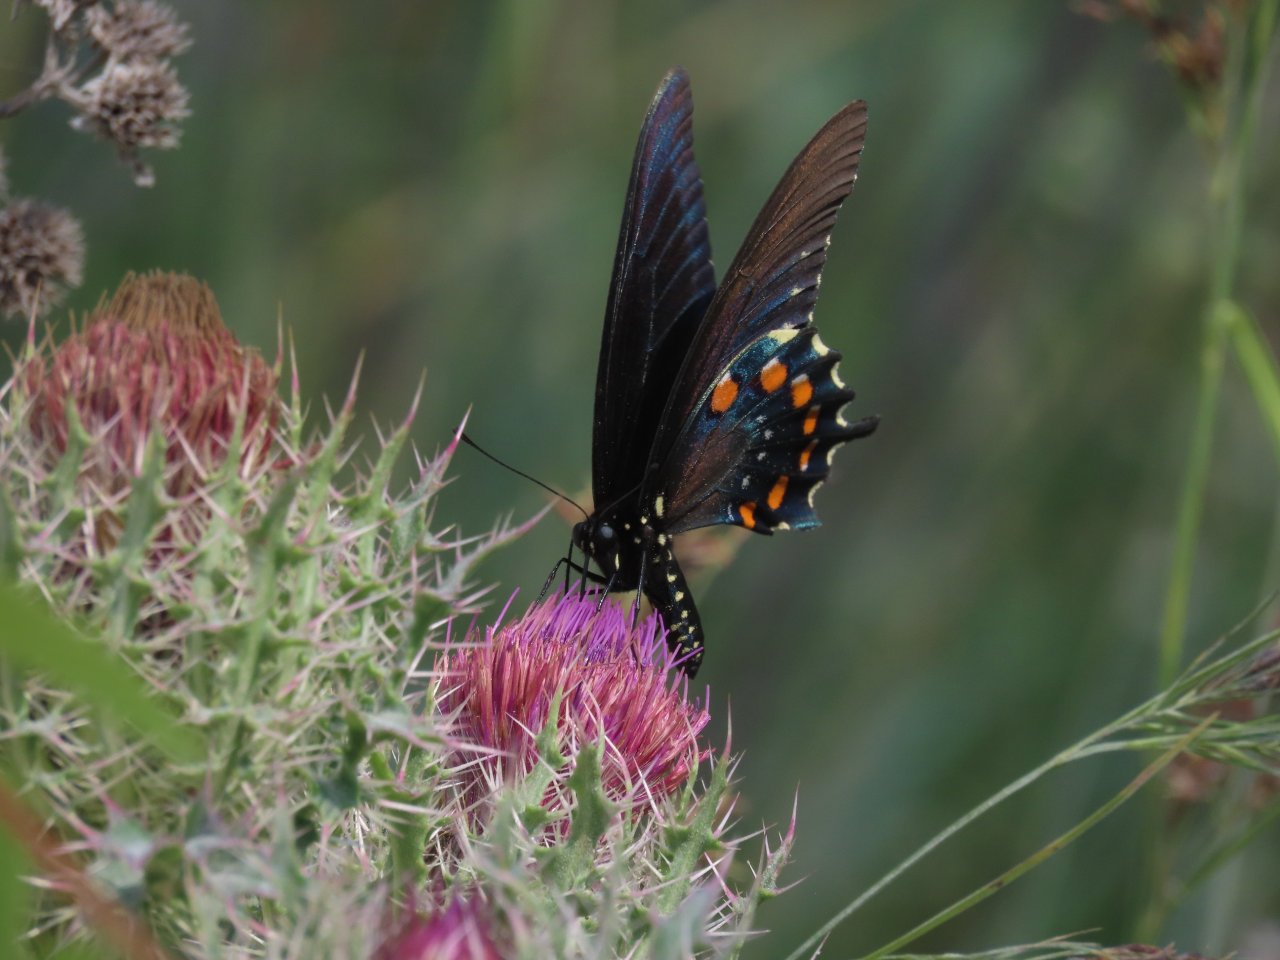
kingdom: Animalia
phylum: Arthropoda
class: Insecta
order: Lepidoptera
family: Papilionidae
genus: Battus
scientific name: Battus philenor
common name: Pipevine Swallowtail
